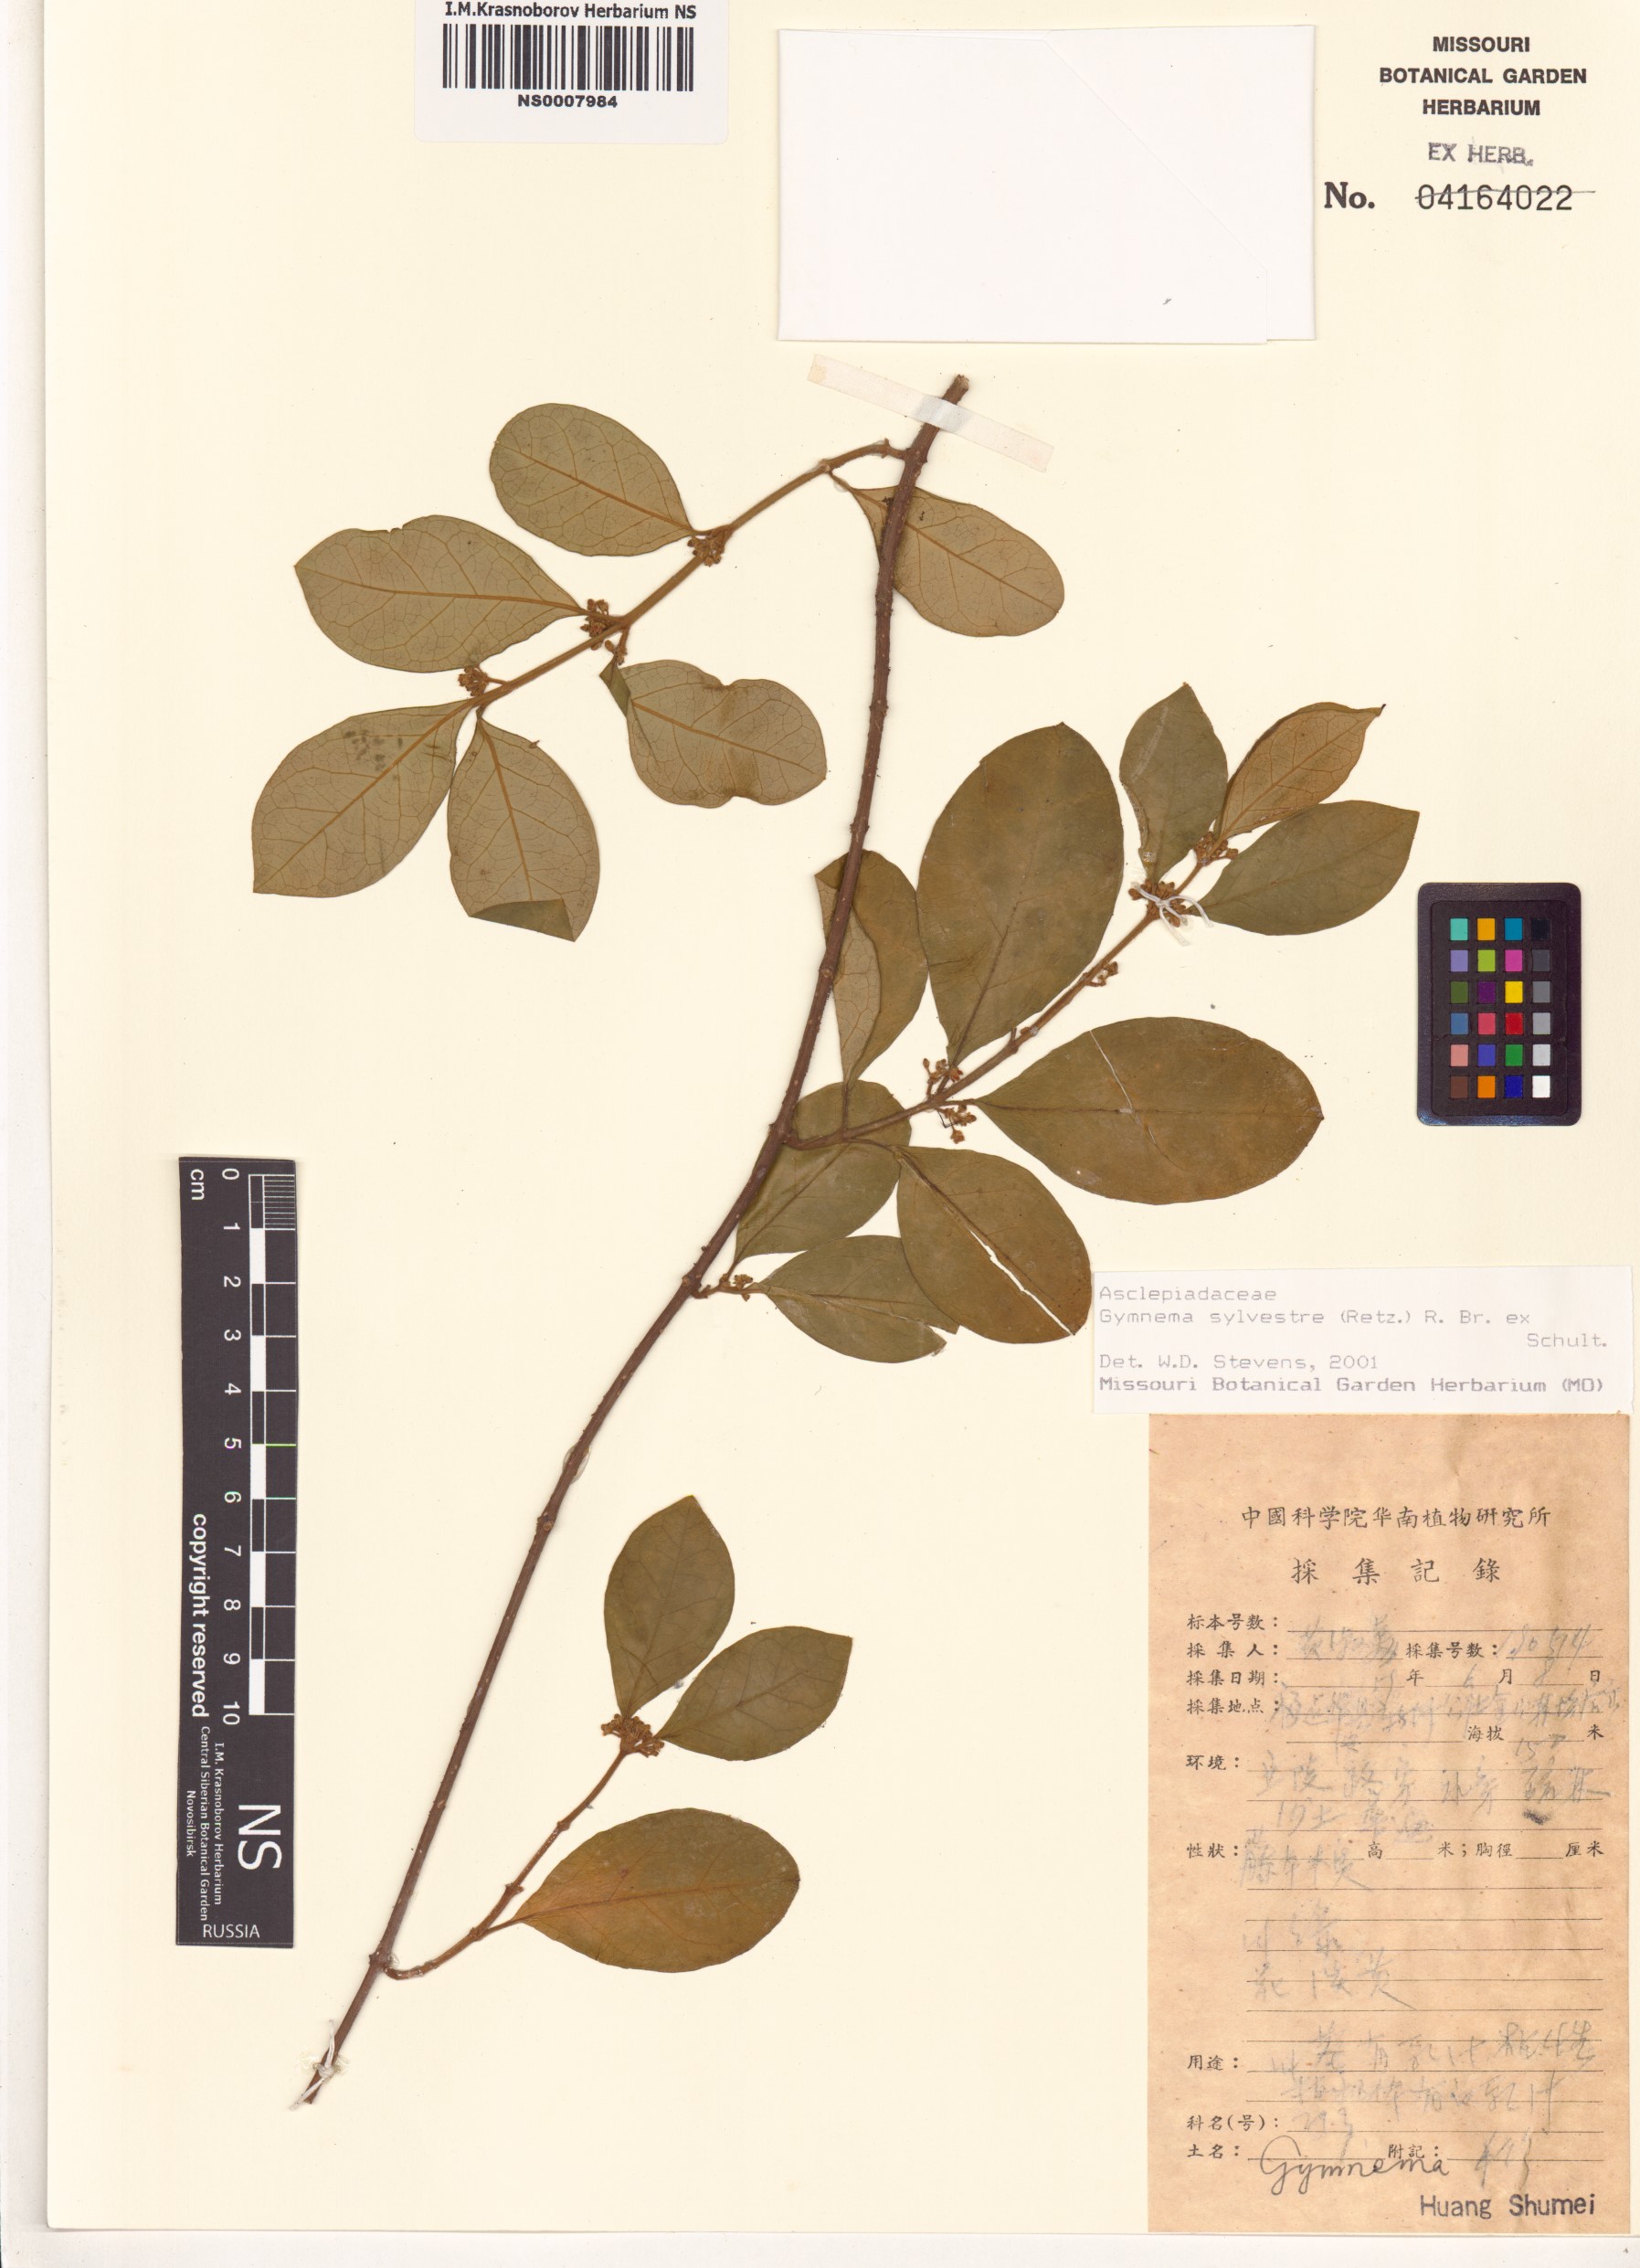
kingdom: Plantae
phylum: Tracheophyta
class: Magnoliopsida
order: Gentianales
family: Apocynaceae
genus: Gymnema
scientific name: Gymnema sylvestre
